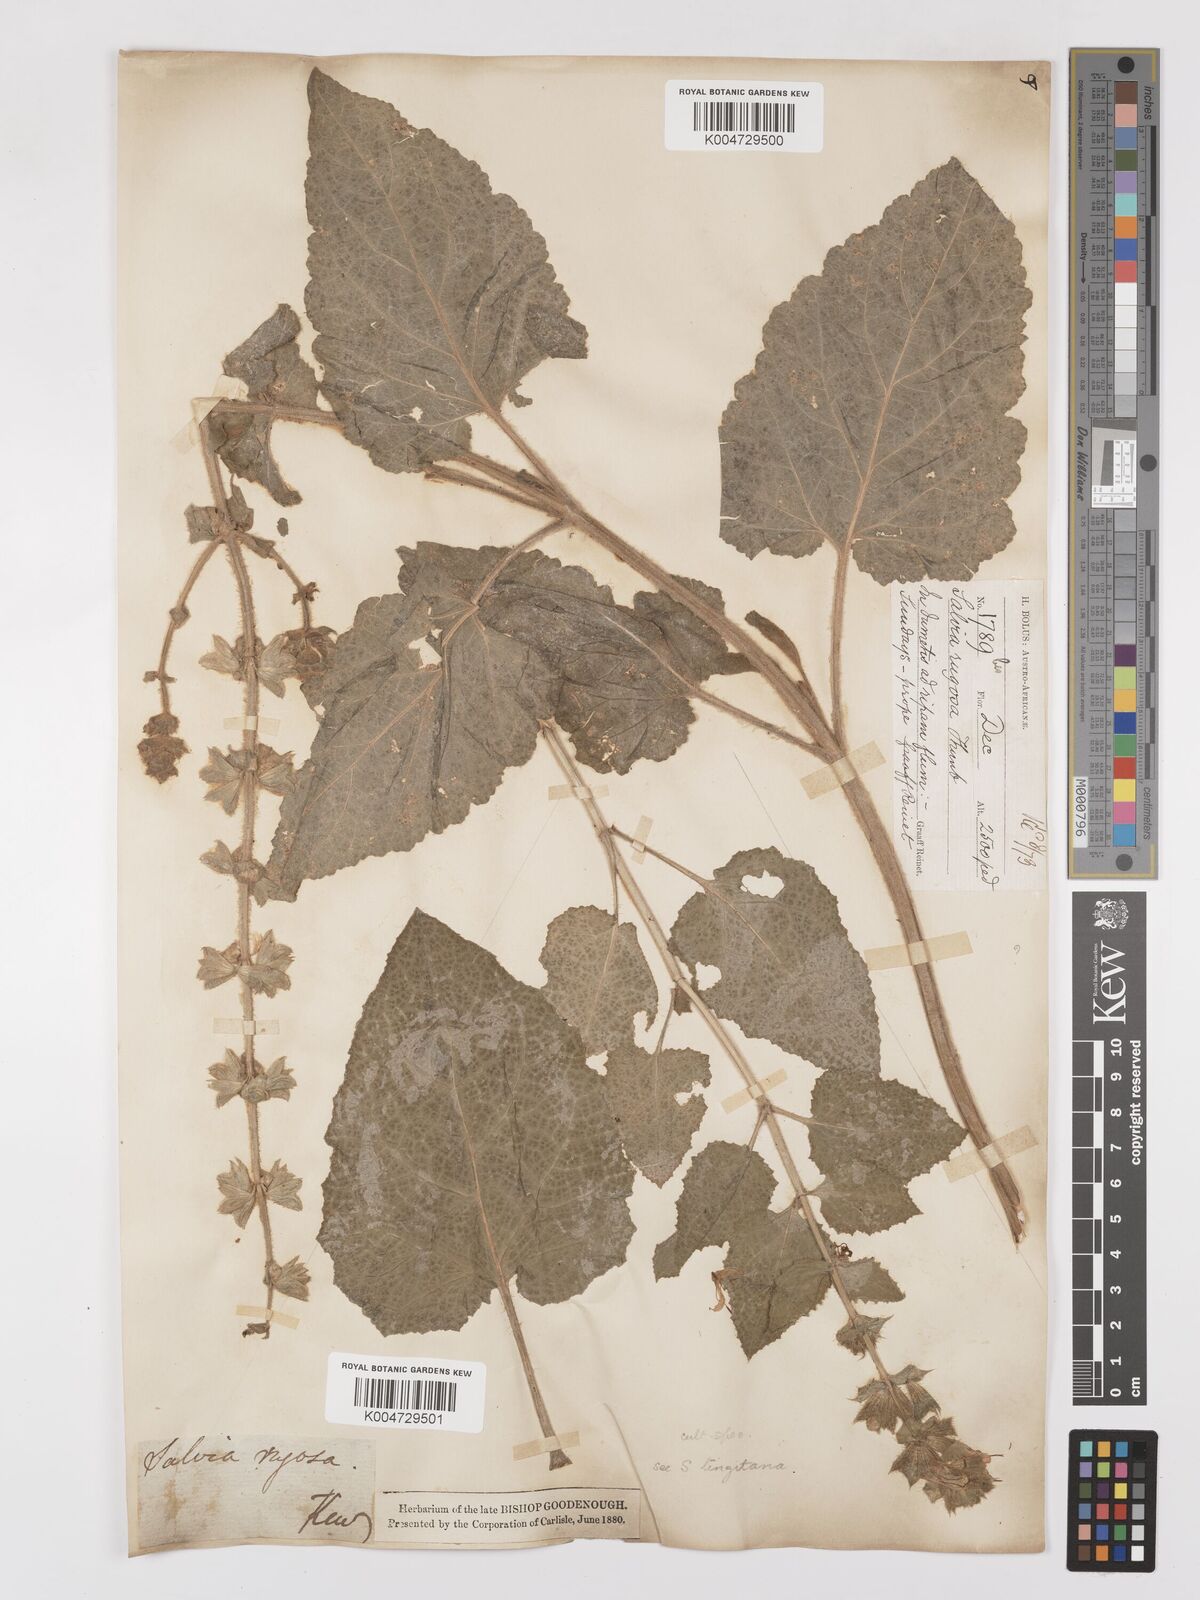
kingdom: Plantae
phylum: Tracheophyta
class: Magnoliopsida
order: Lamiales
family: Lamiaceae
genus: Salvia
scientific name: Salvia
